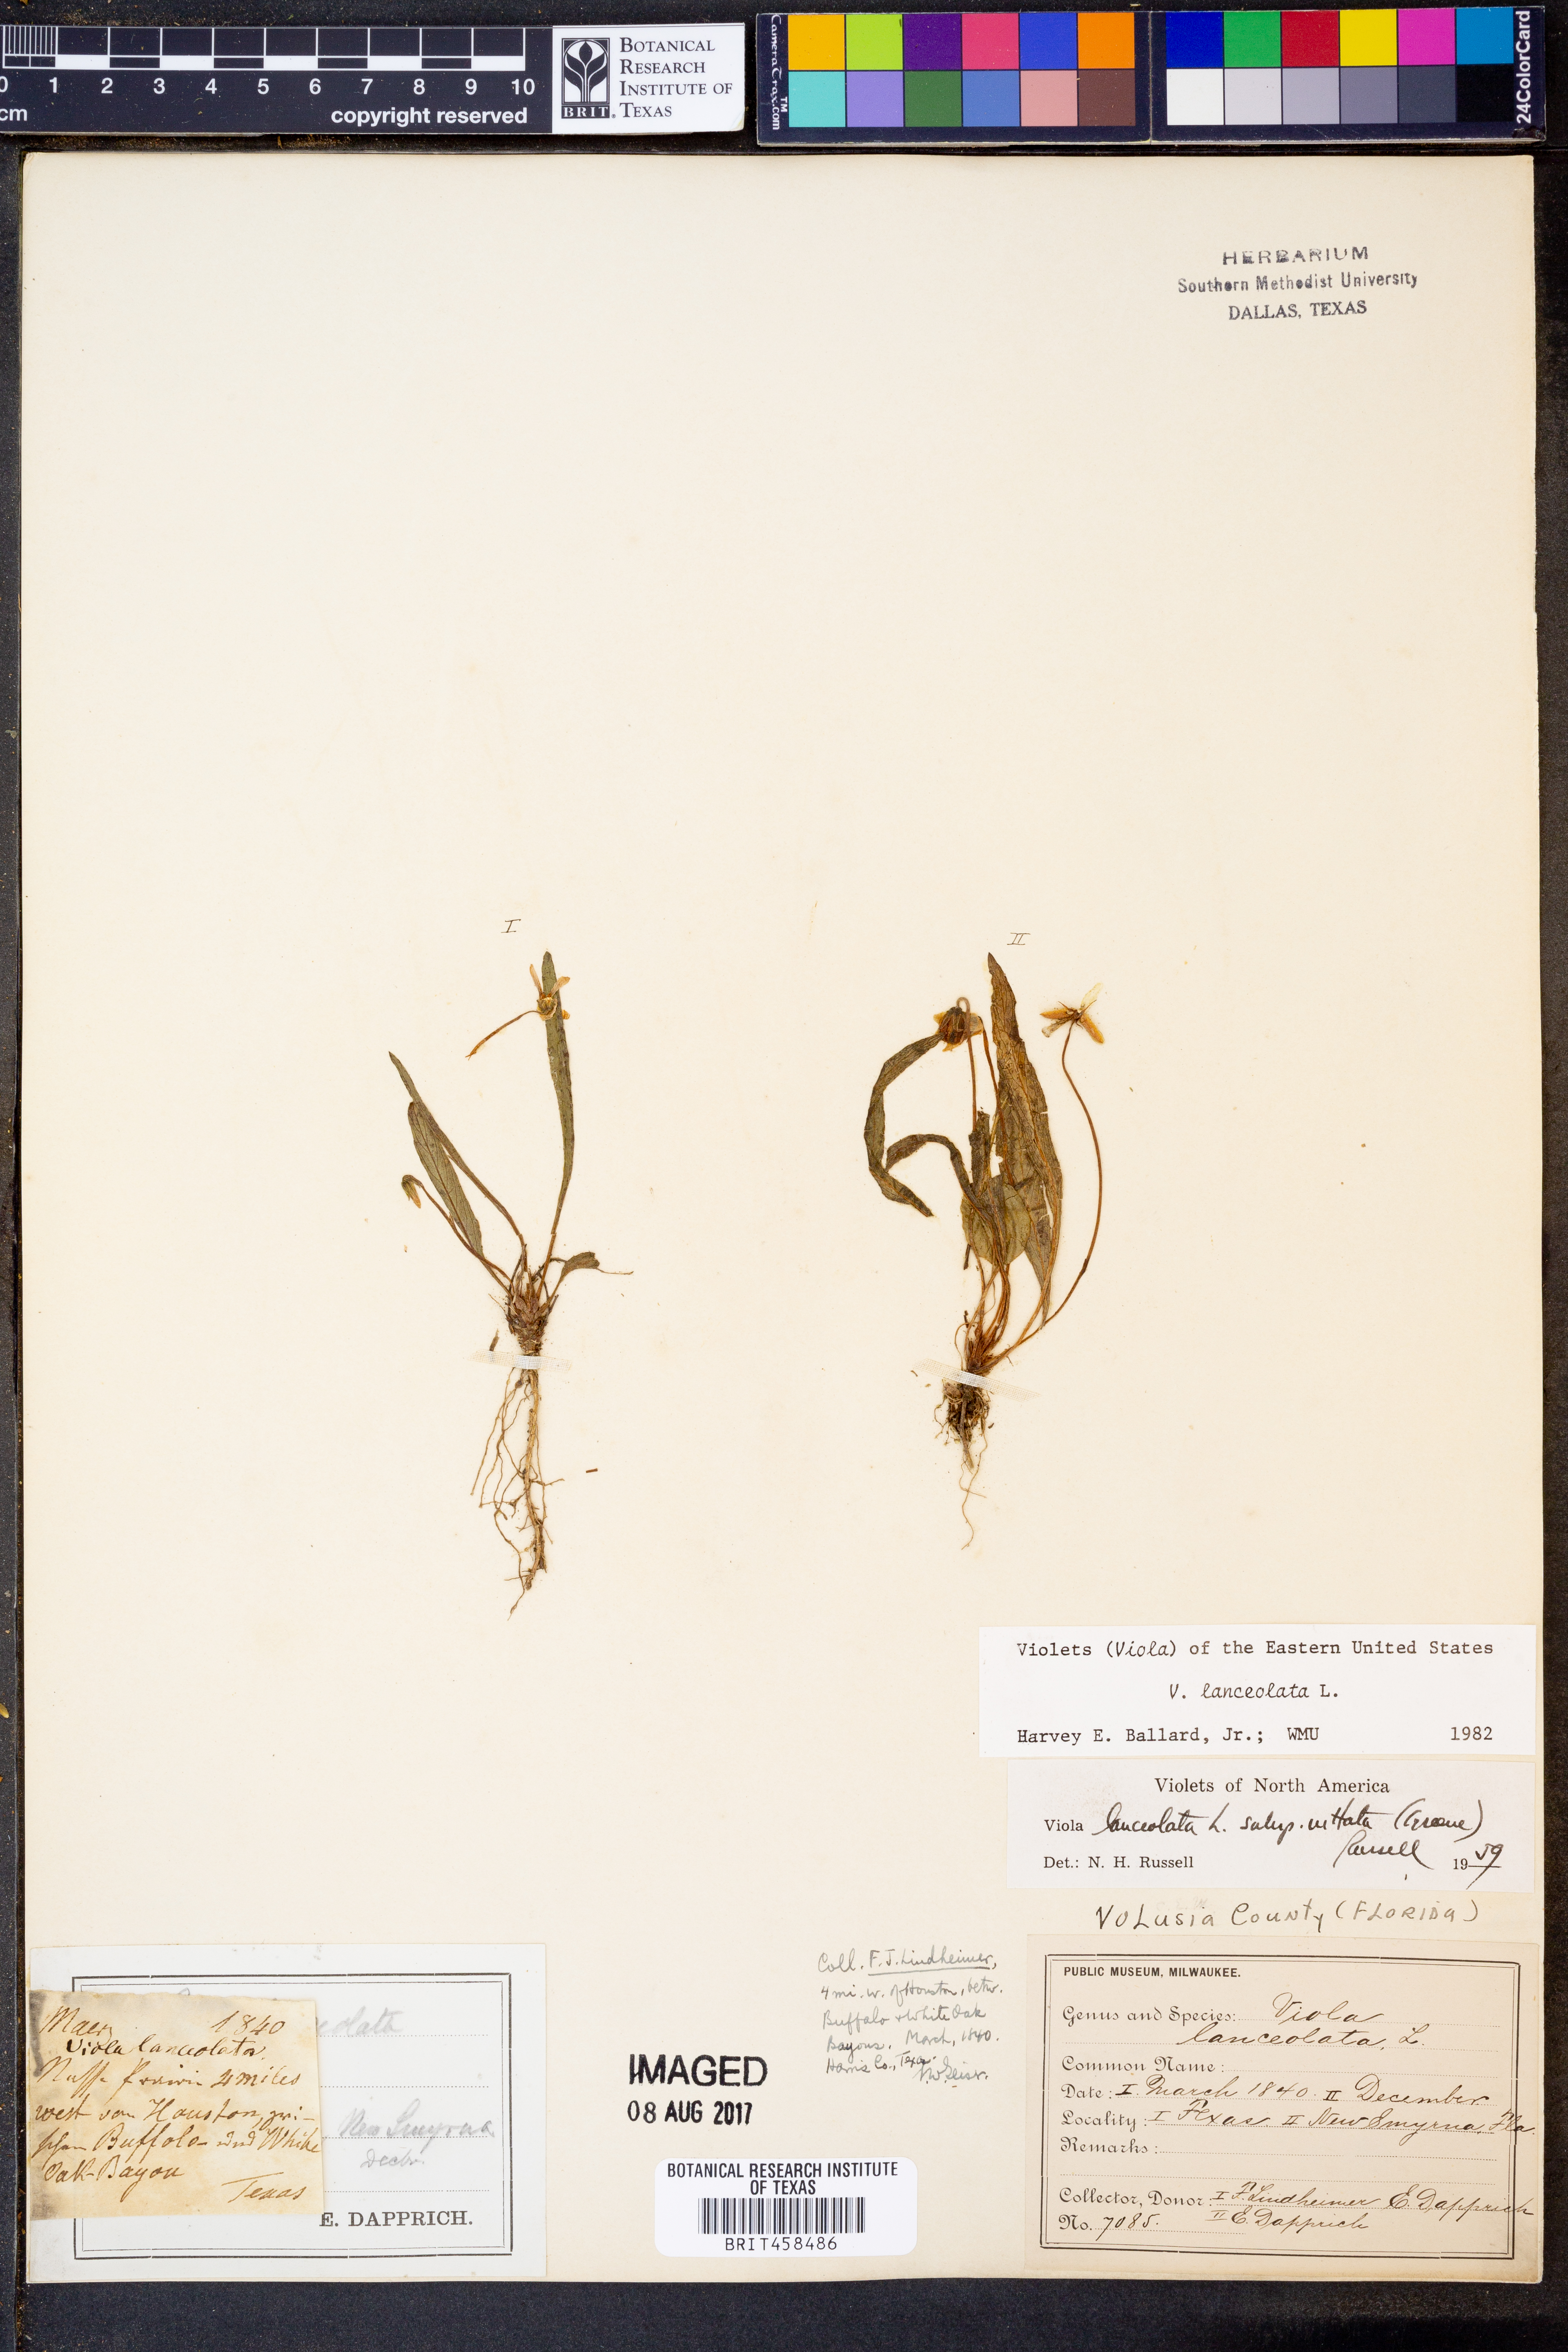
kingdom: Plantae
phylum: Tracheophyta
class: Magnoliopsida
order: Malpighiales
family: Violaceae
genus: Viola
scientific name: Viola lanceolata
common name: Bog white violet
